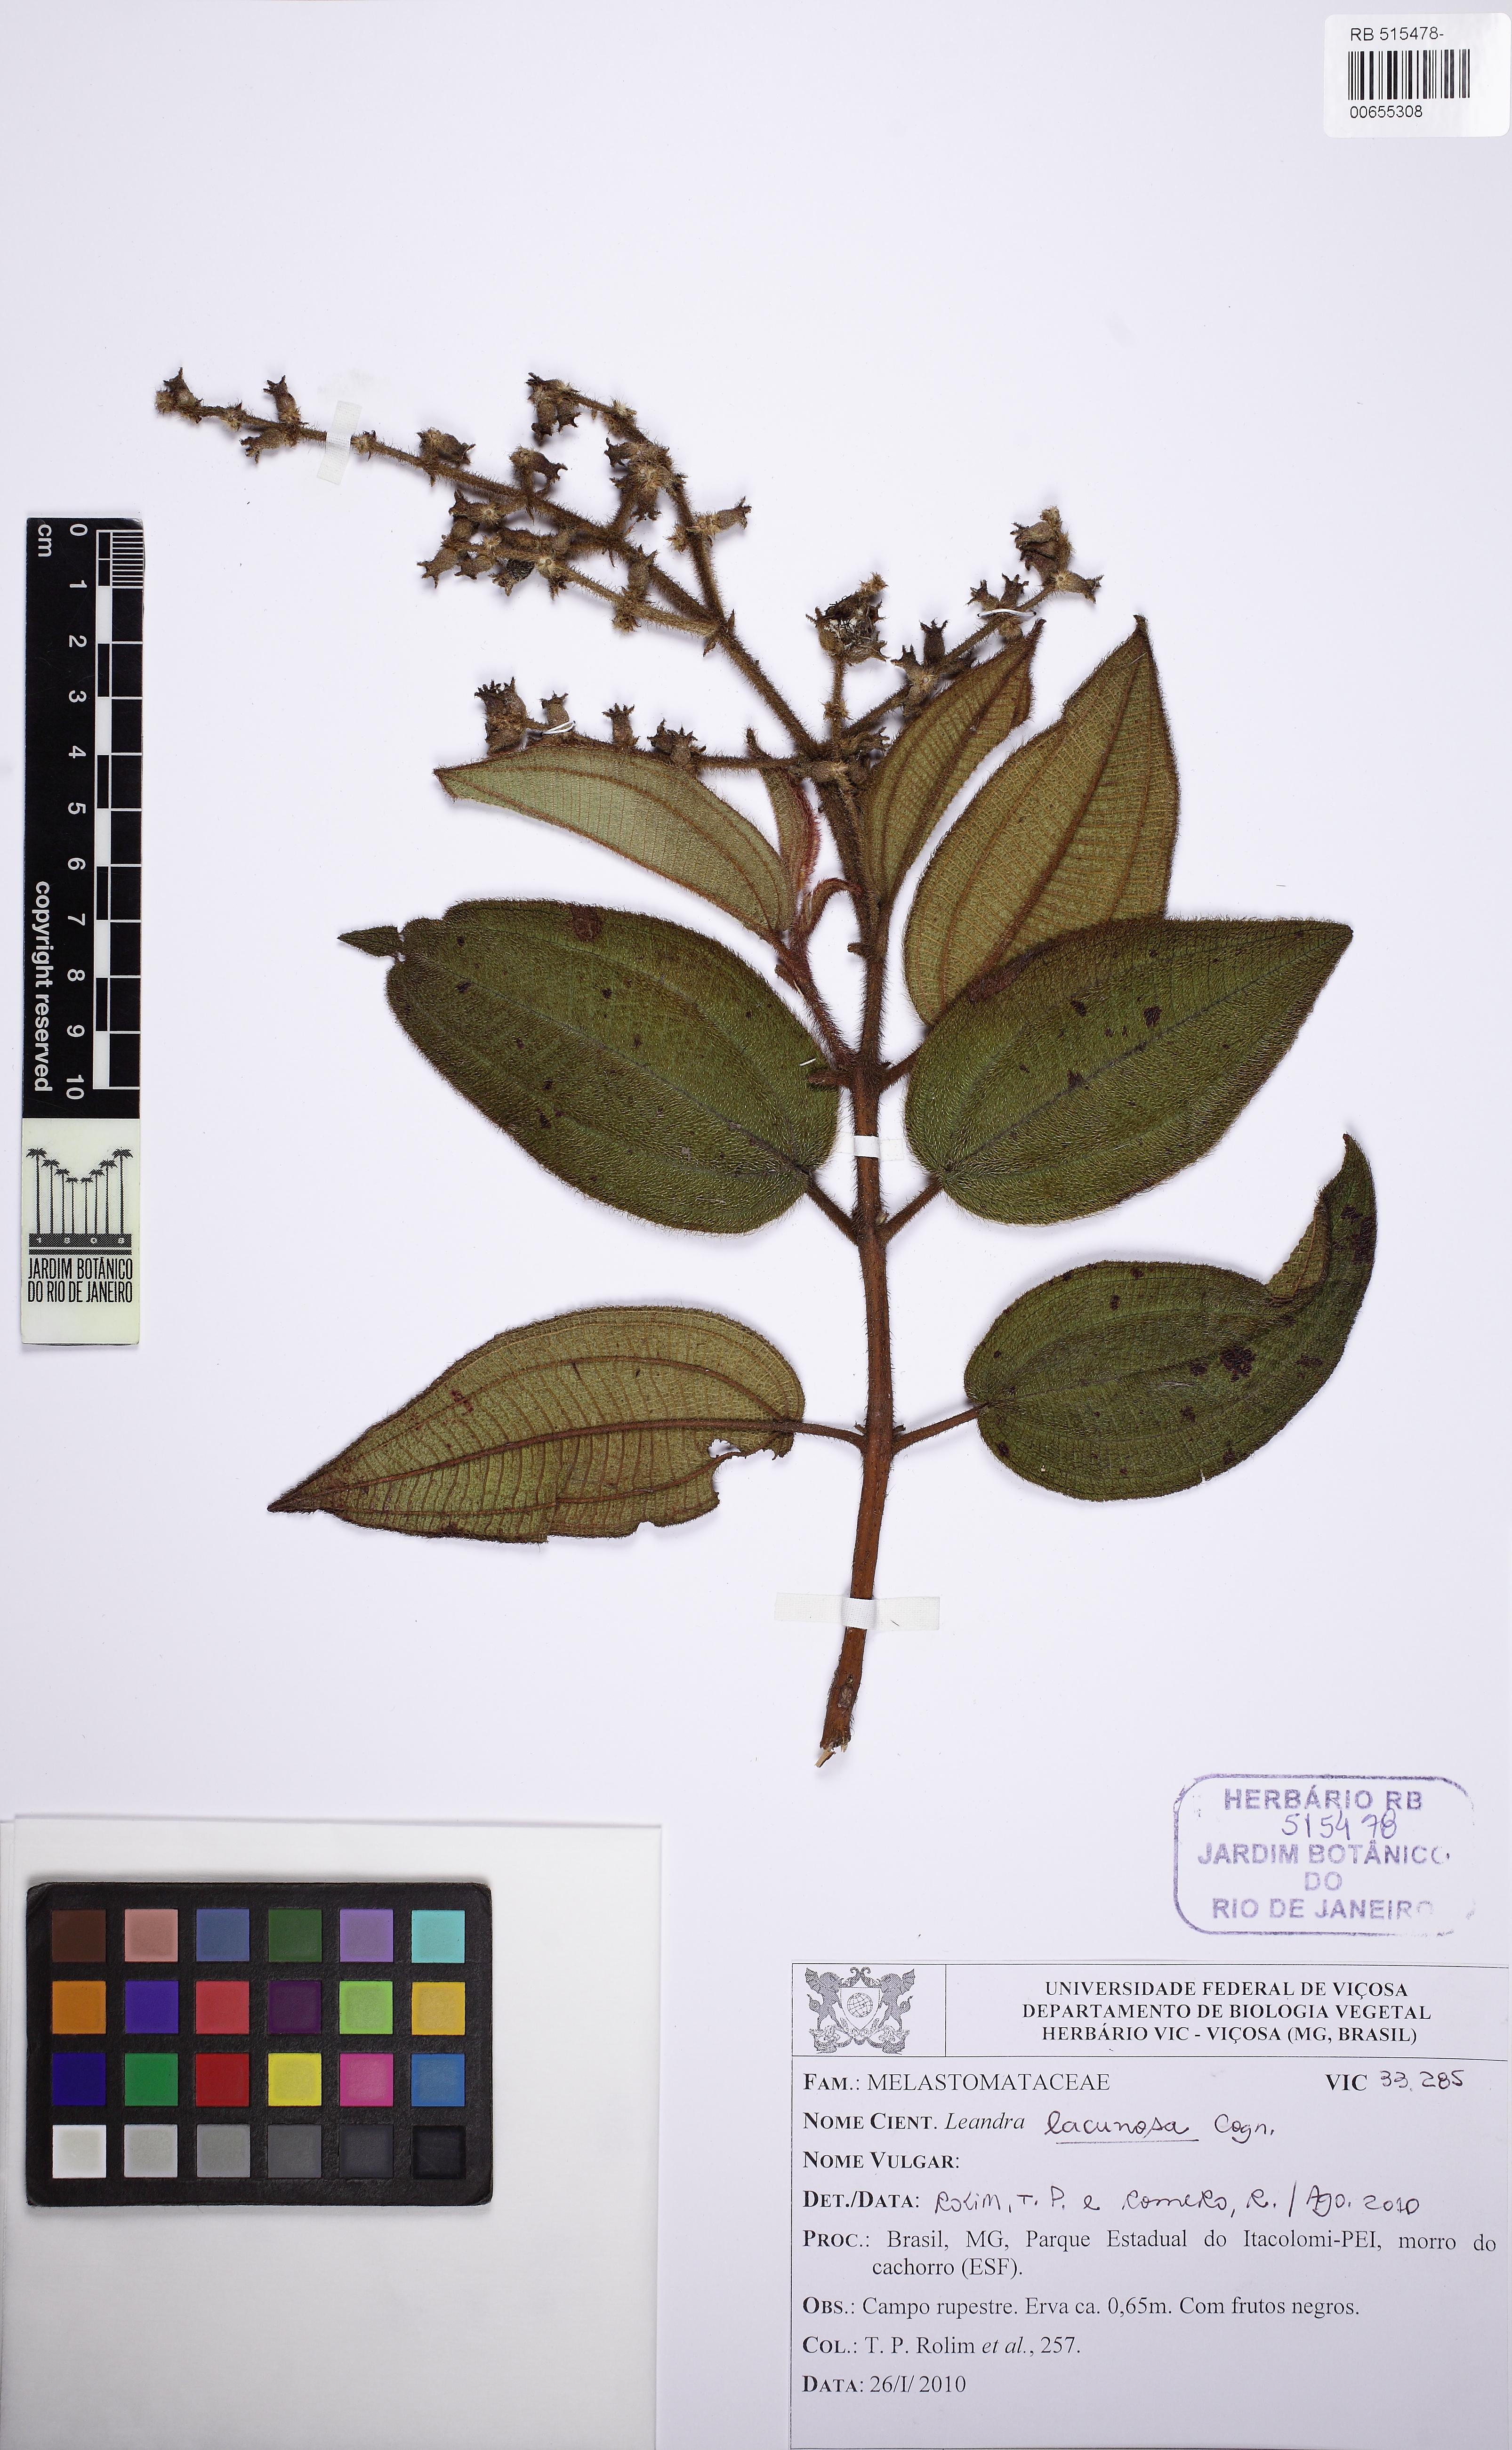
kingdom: Plantae
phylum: Tracheophyta
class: Magnoliopsida
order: Myrtales
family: Melastomataceae
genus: Miconia
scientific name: Miconia lacunosa
